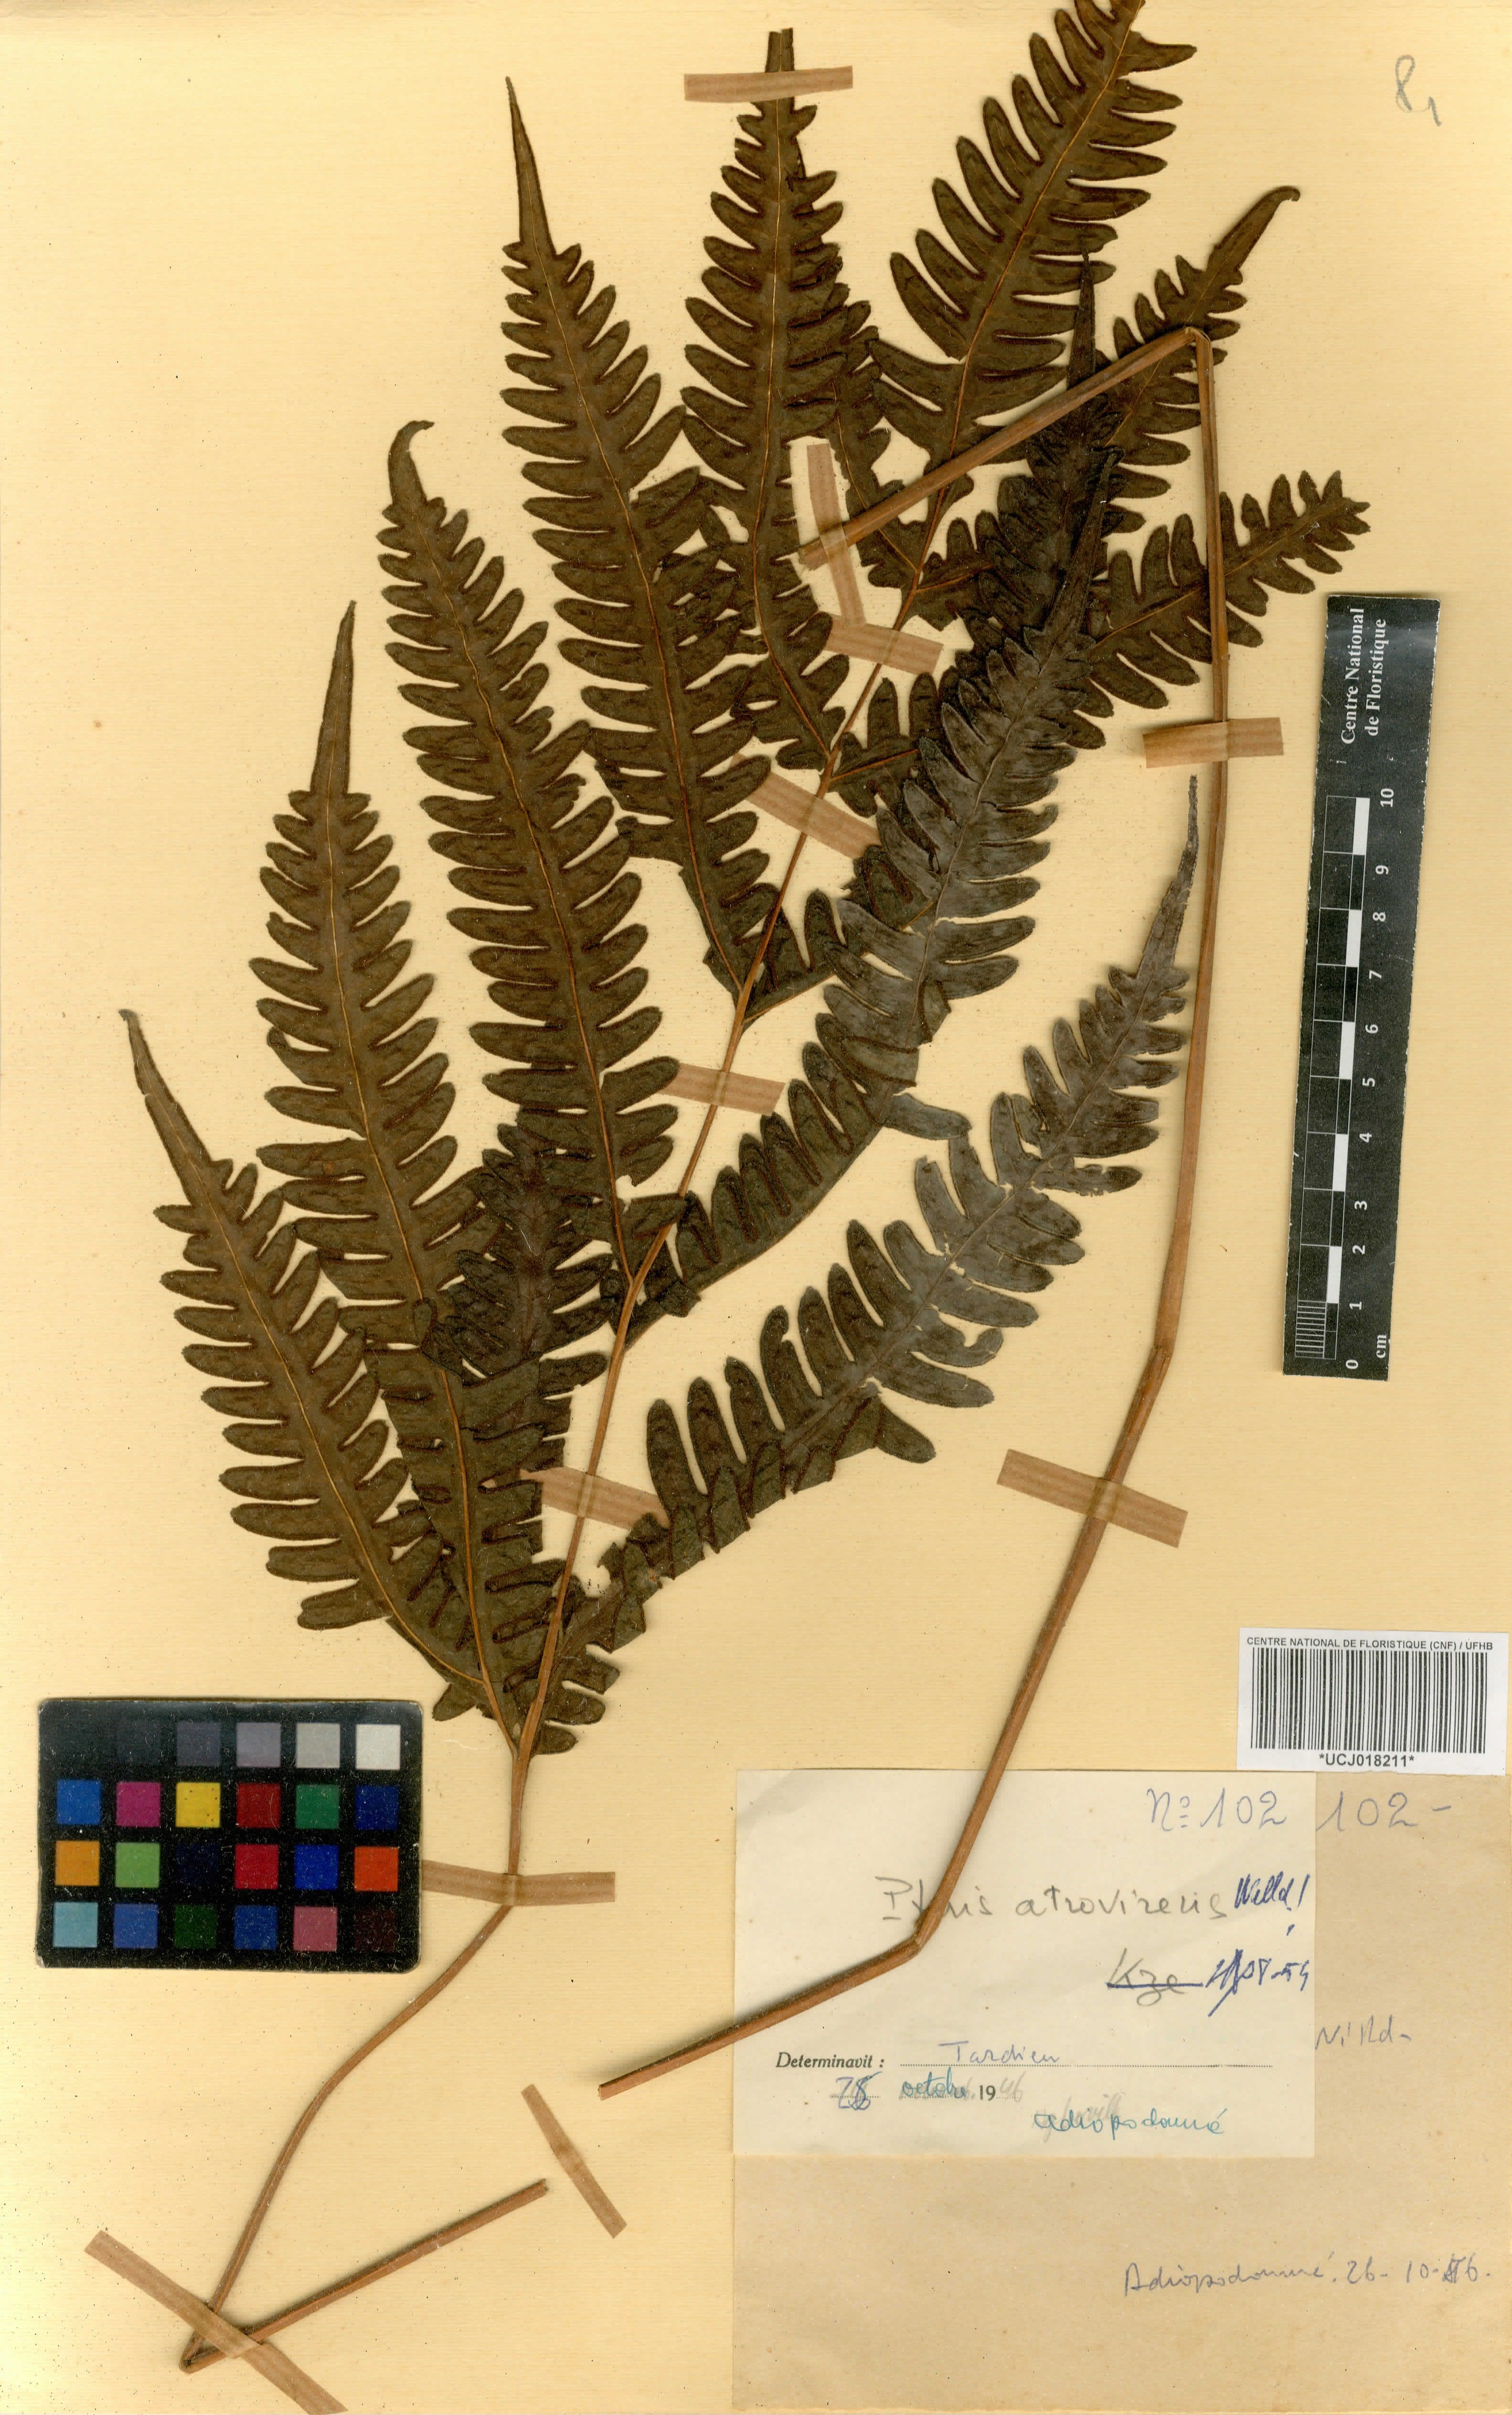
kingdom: Plantae
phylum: Tracheophyta
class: Polypodiopsida
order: Polypodiales
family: Pteridaceae
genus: Pteris
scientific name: Pteris atrovirens
